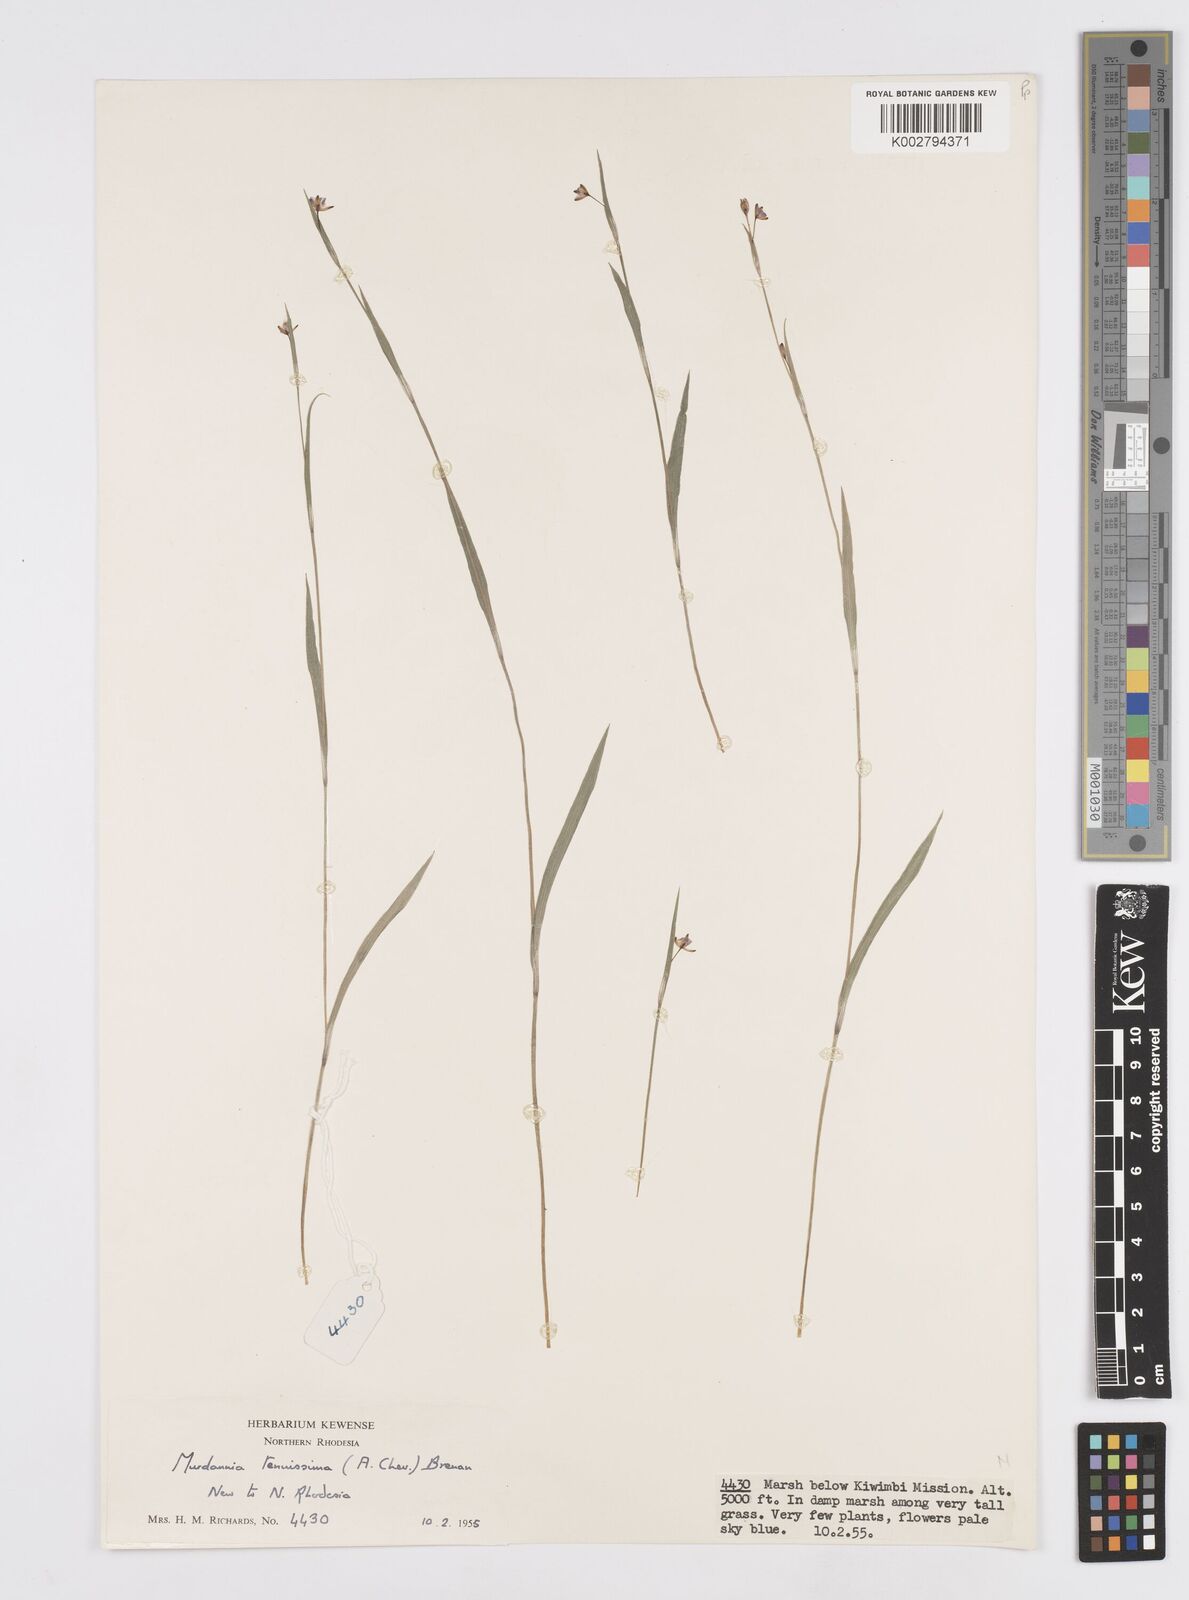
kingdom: Plantae
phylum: Tracheophyta
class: Liliopsida
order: Commelinales
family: Commelinaceae
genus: Murdannia
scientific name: Murdannia tenuissima
